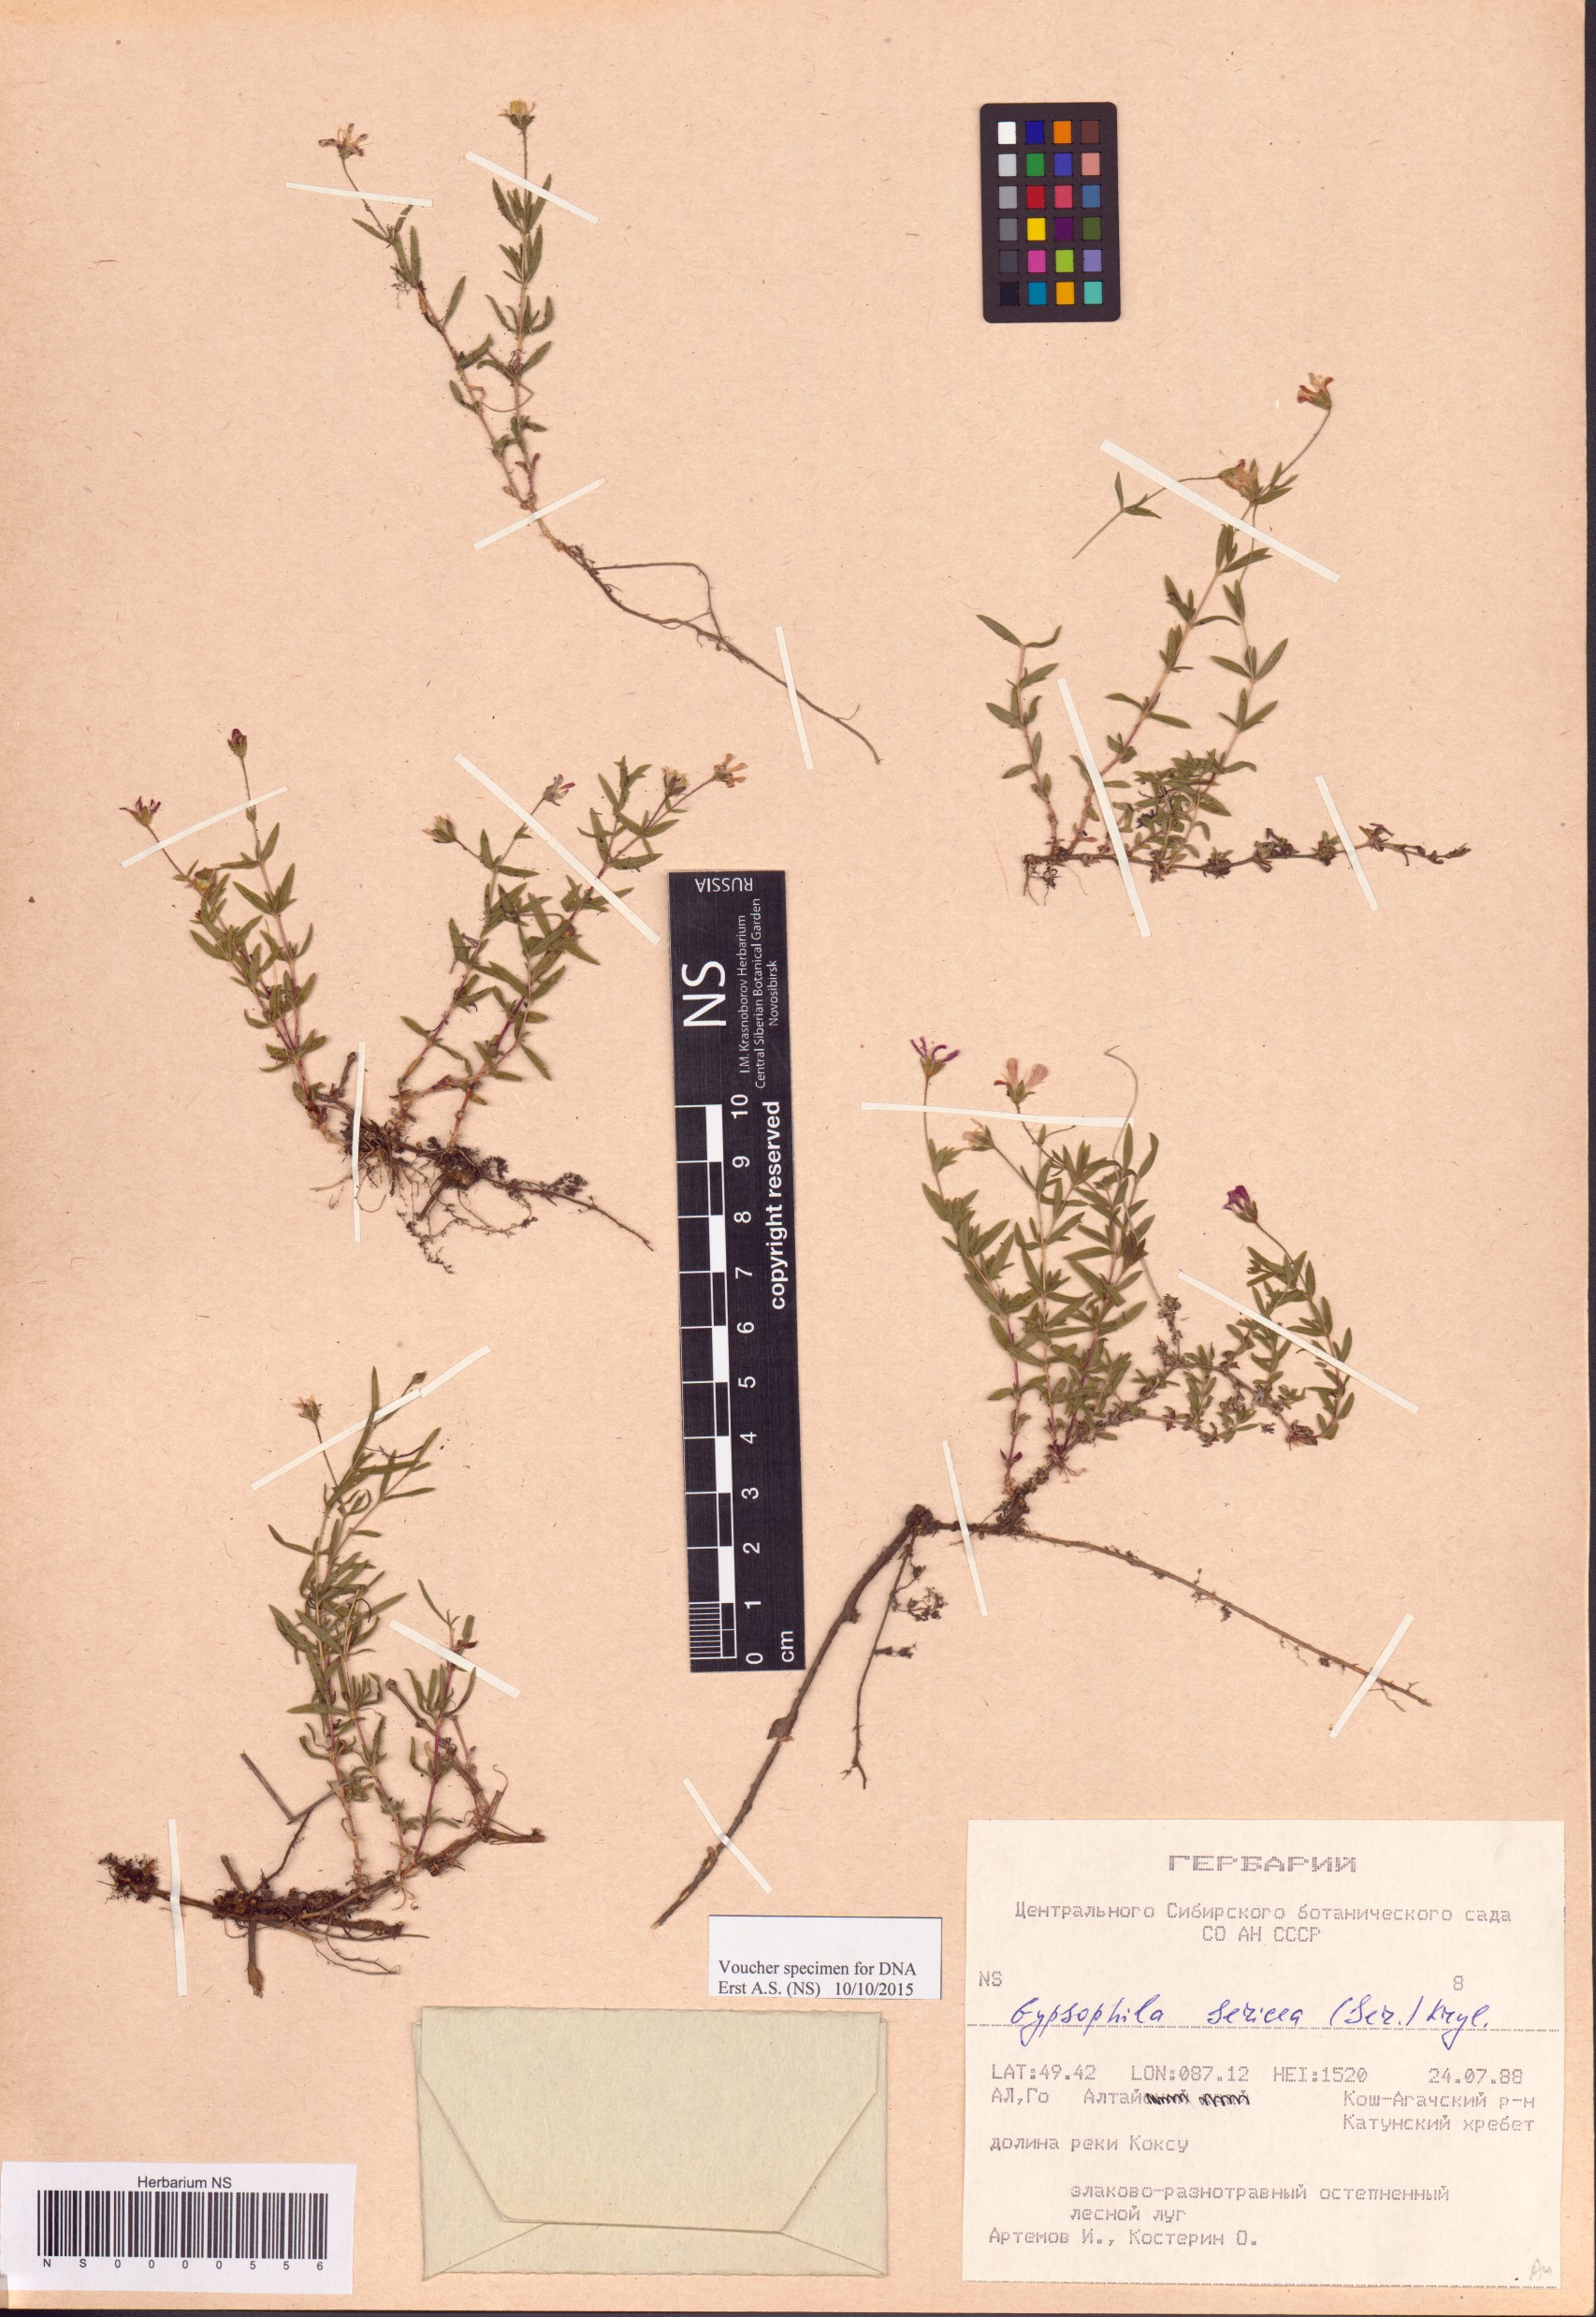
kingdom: Plantae
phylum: Tracheophyta
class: Magnoliopsida
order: Caryophyllales
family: Caryophyllaceae
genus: Heterochroa
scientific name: Heterochroa petraea
